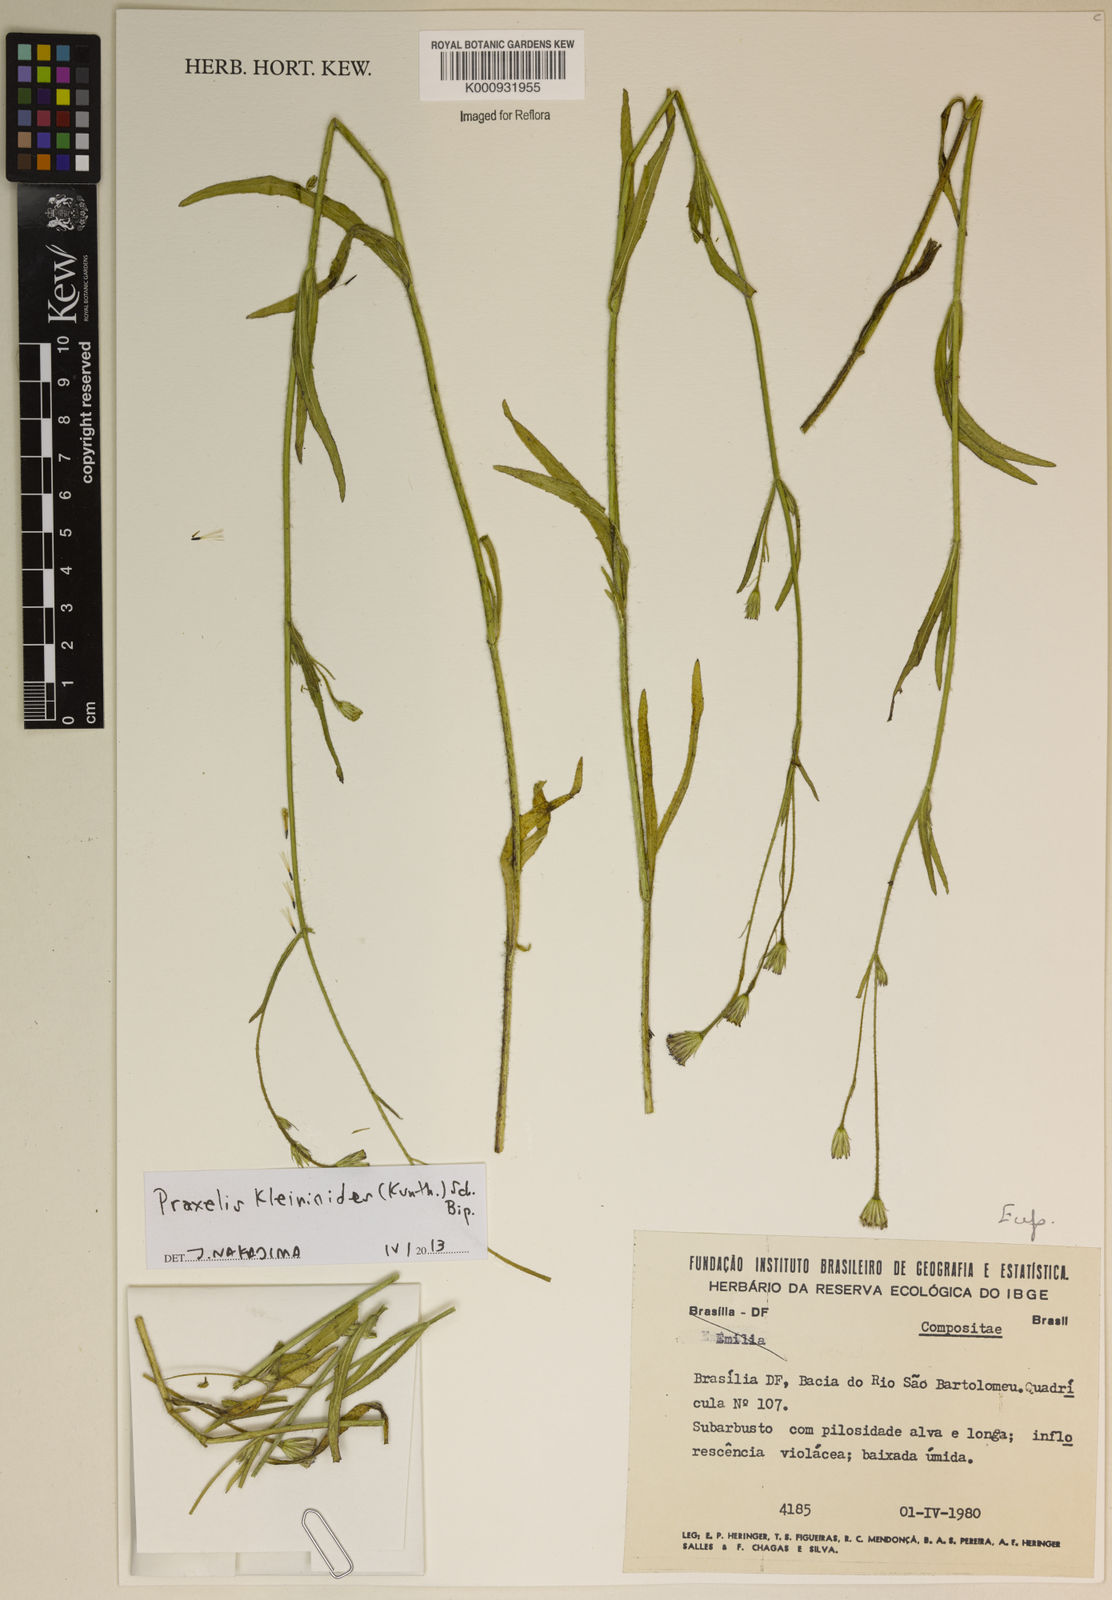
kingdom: Plantae
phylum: Tracheophyta
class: Magnoliopsida
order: Asterales
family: Asteraceae
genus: Praxelis
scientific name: Praxelis kleinioides
